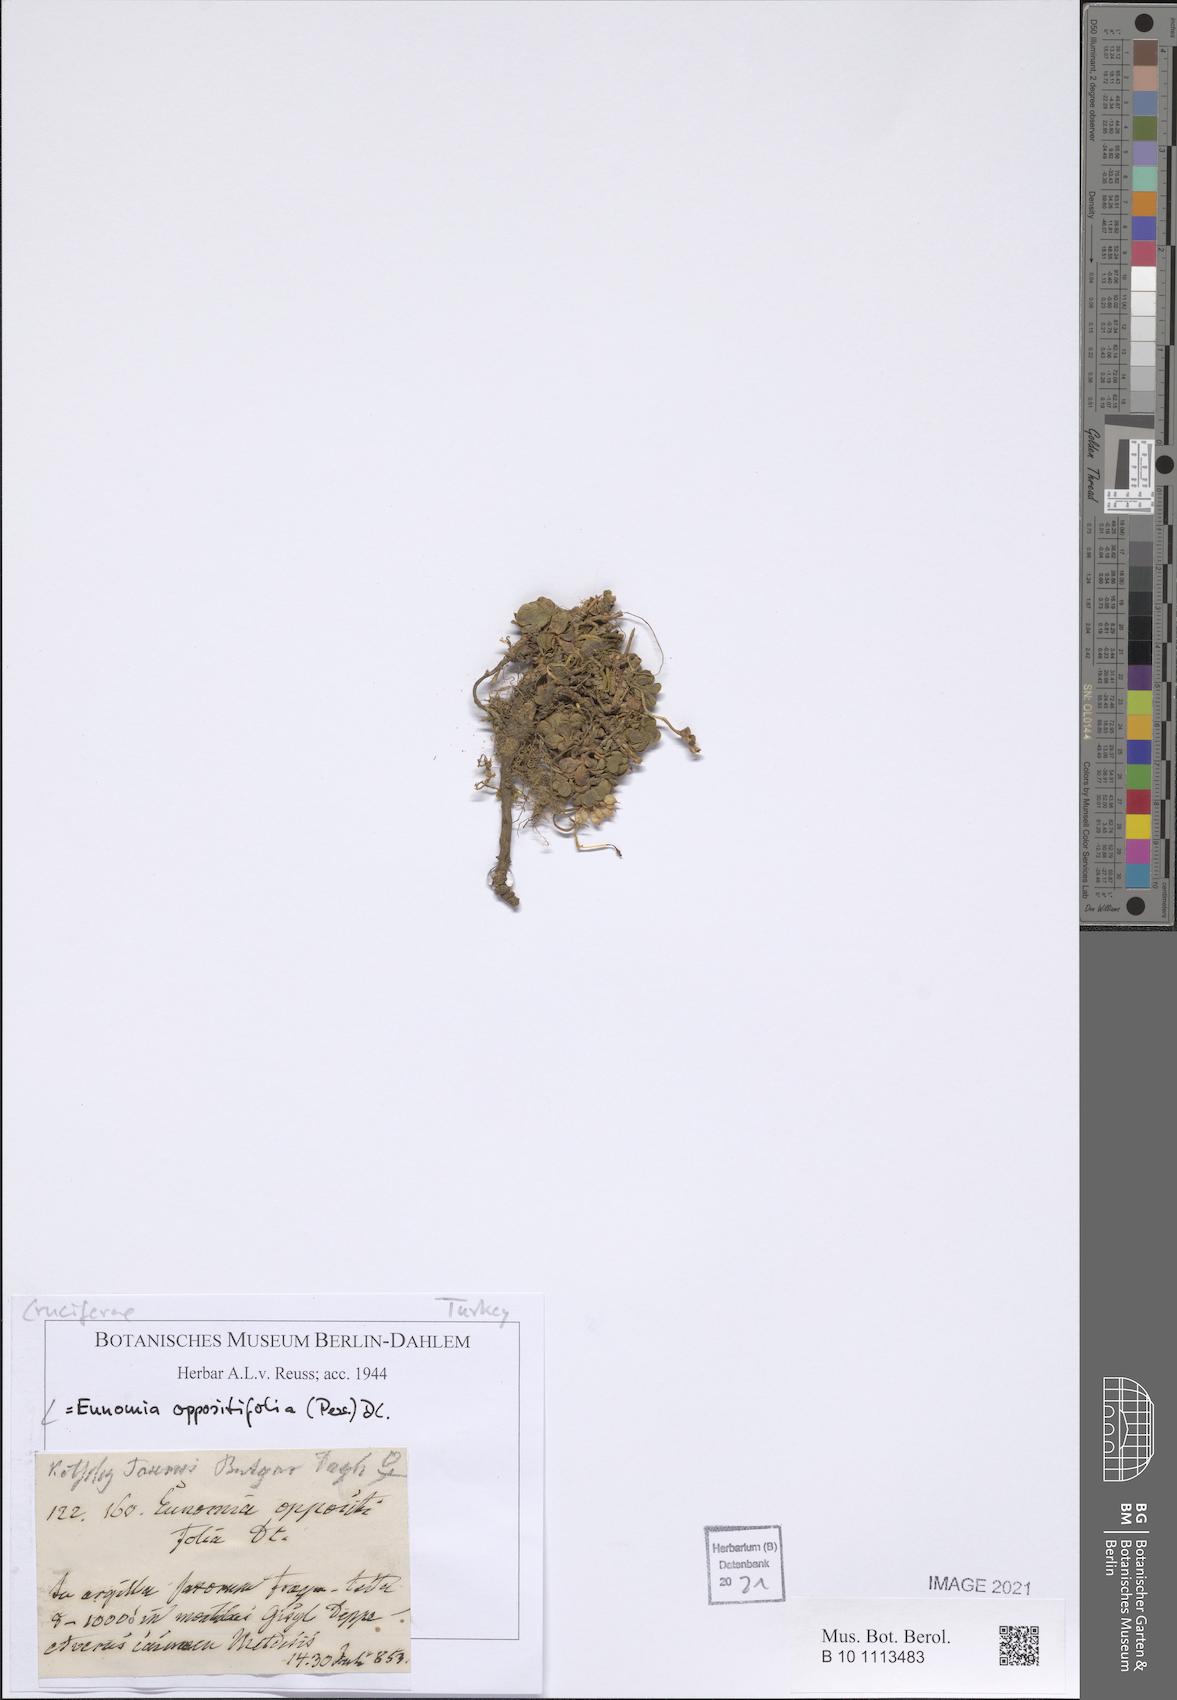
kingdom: Plantae
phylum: Tracheophyta
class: Magnoliopsida
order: Brassicales
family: Brassicaceae
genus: Noccaea
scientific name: Noccaea oppositifolia
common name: Twin-leaf stone-cress
